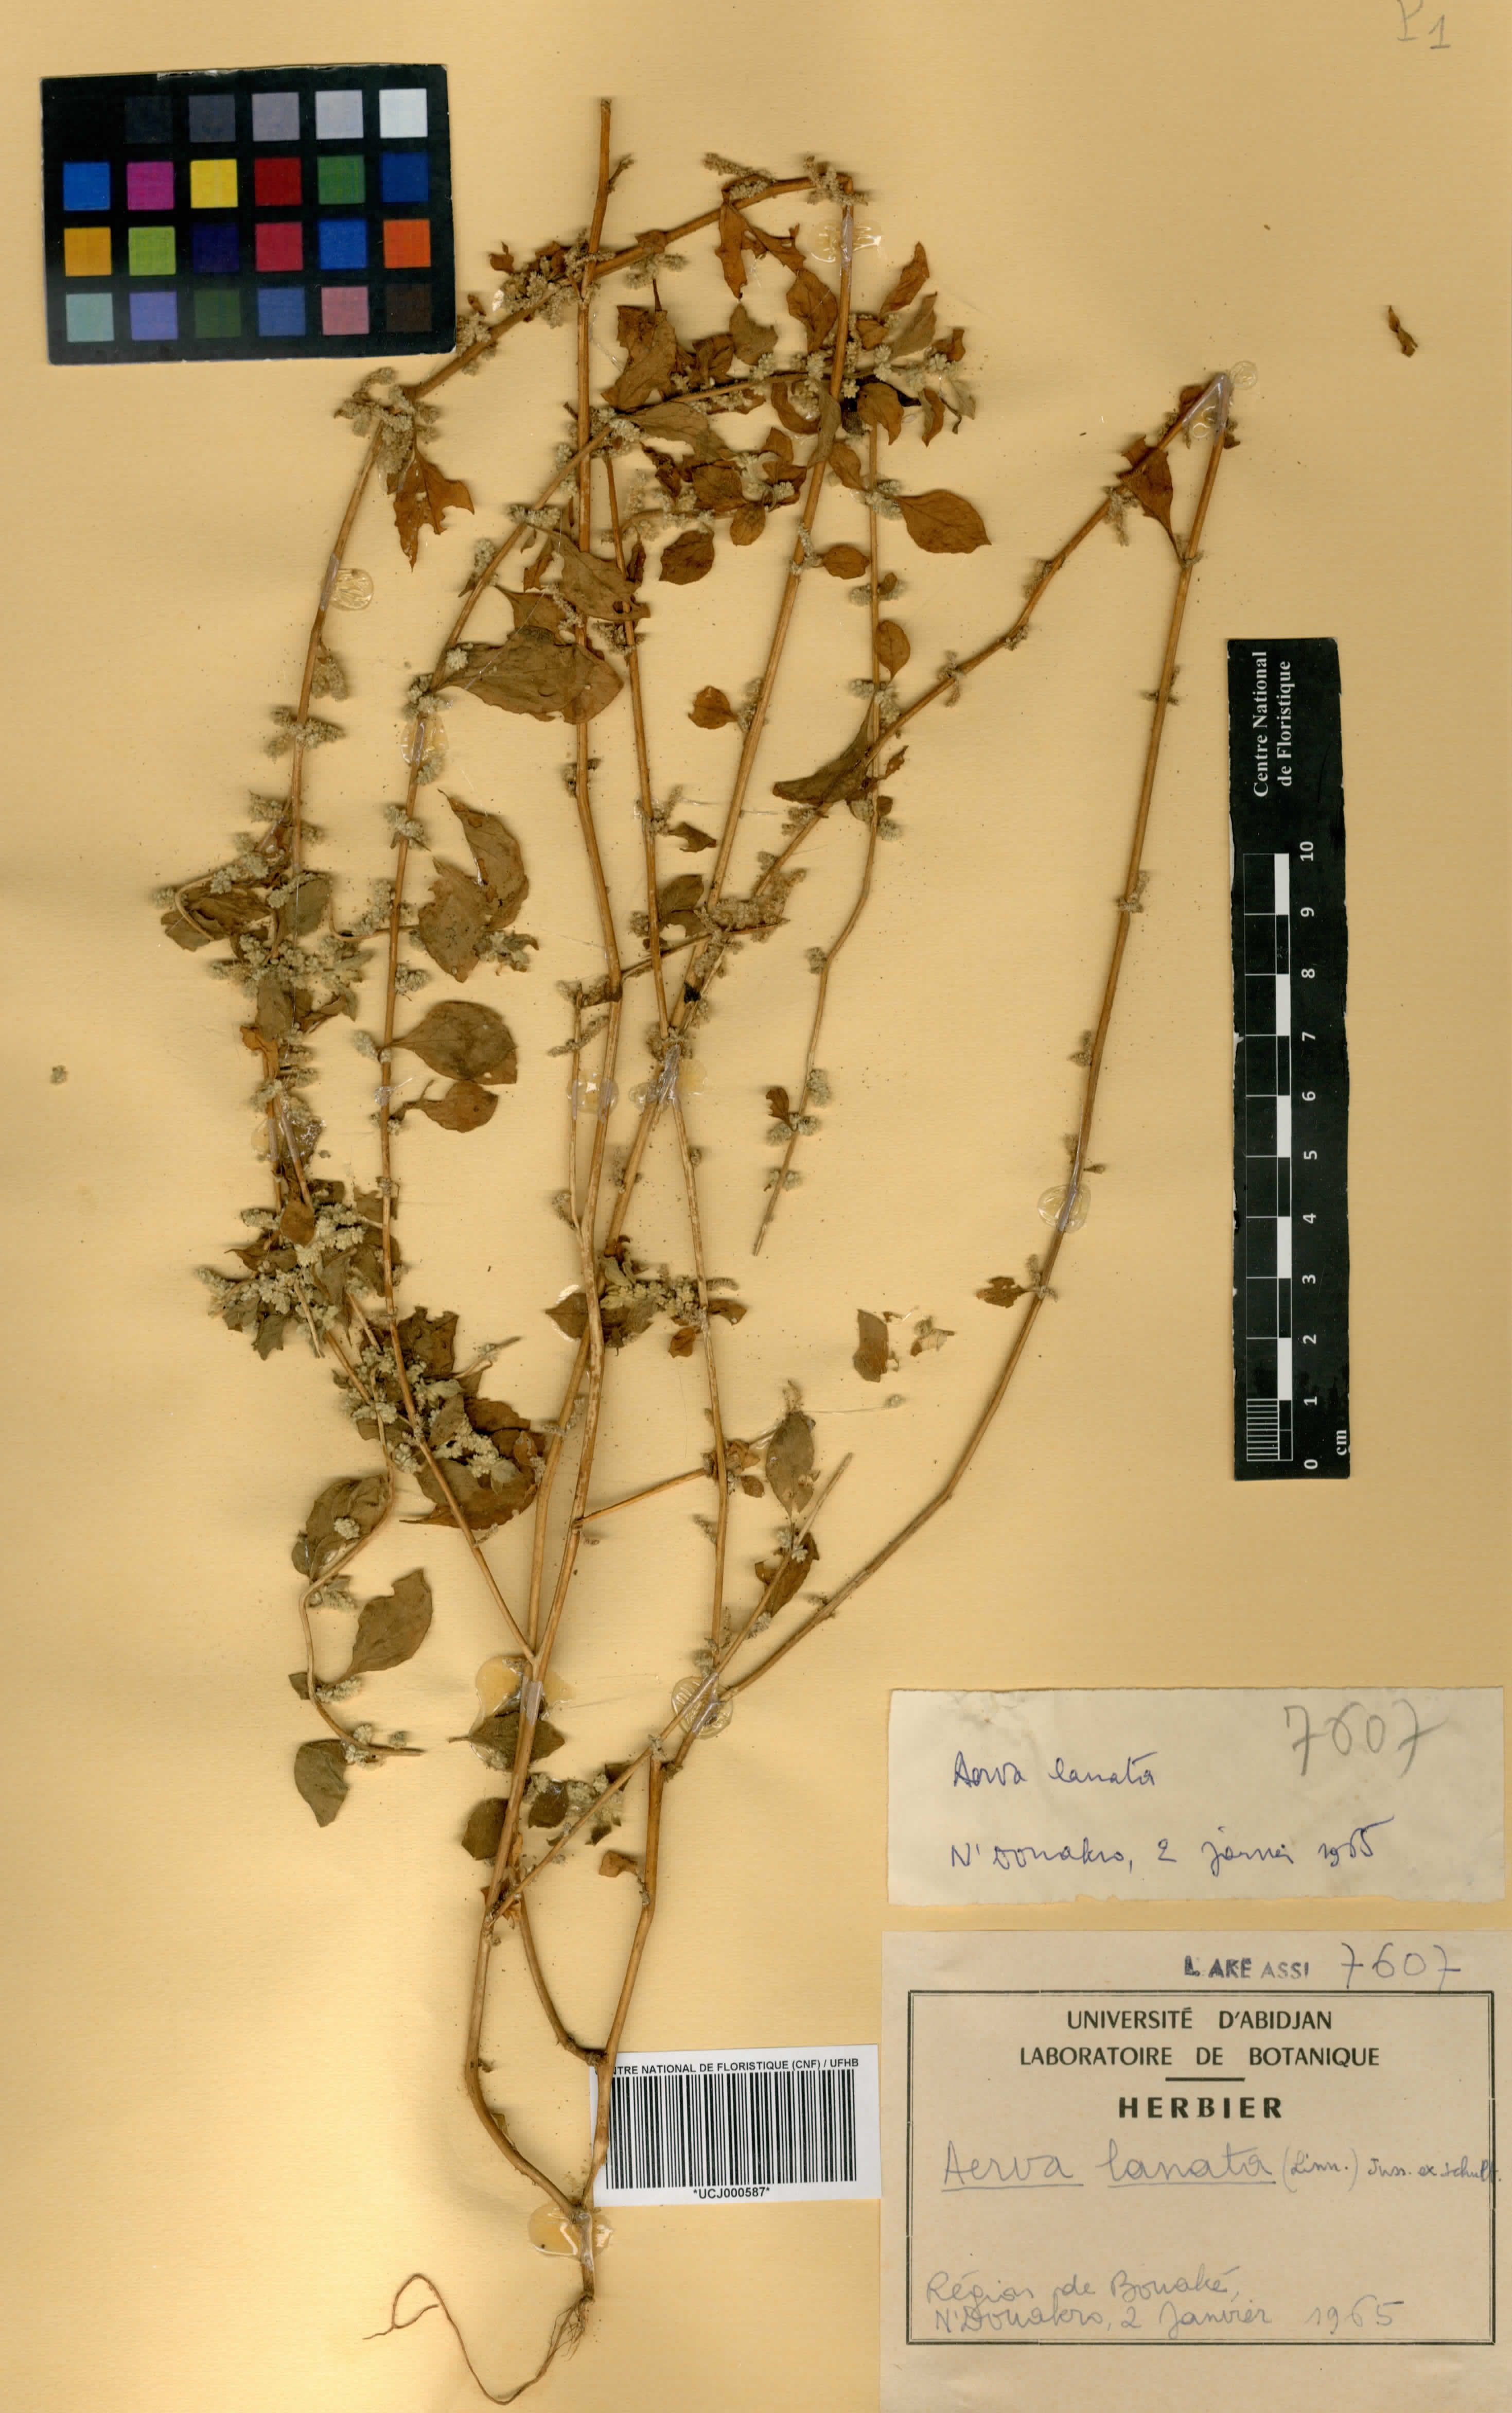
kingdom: Plantae
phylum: Tracheophyta
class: Magnoliopsida
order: Caryophyllales
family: Amaranthaceae
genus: Ouret
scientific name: Ouret lanata
